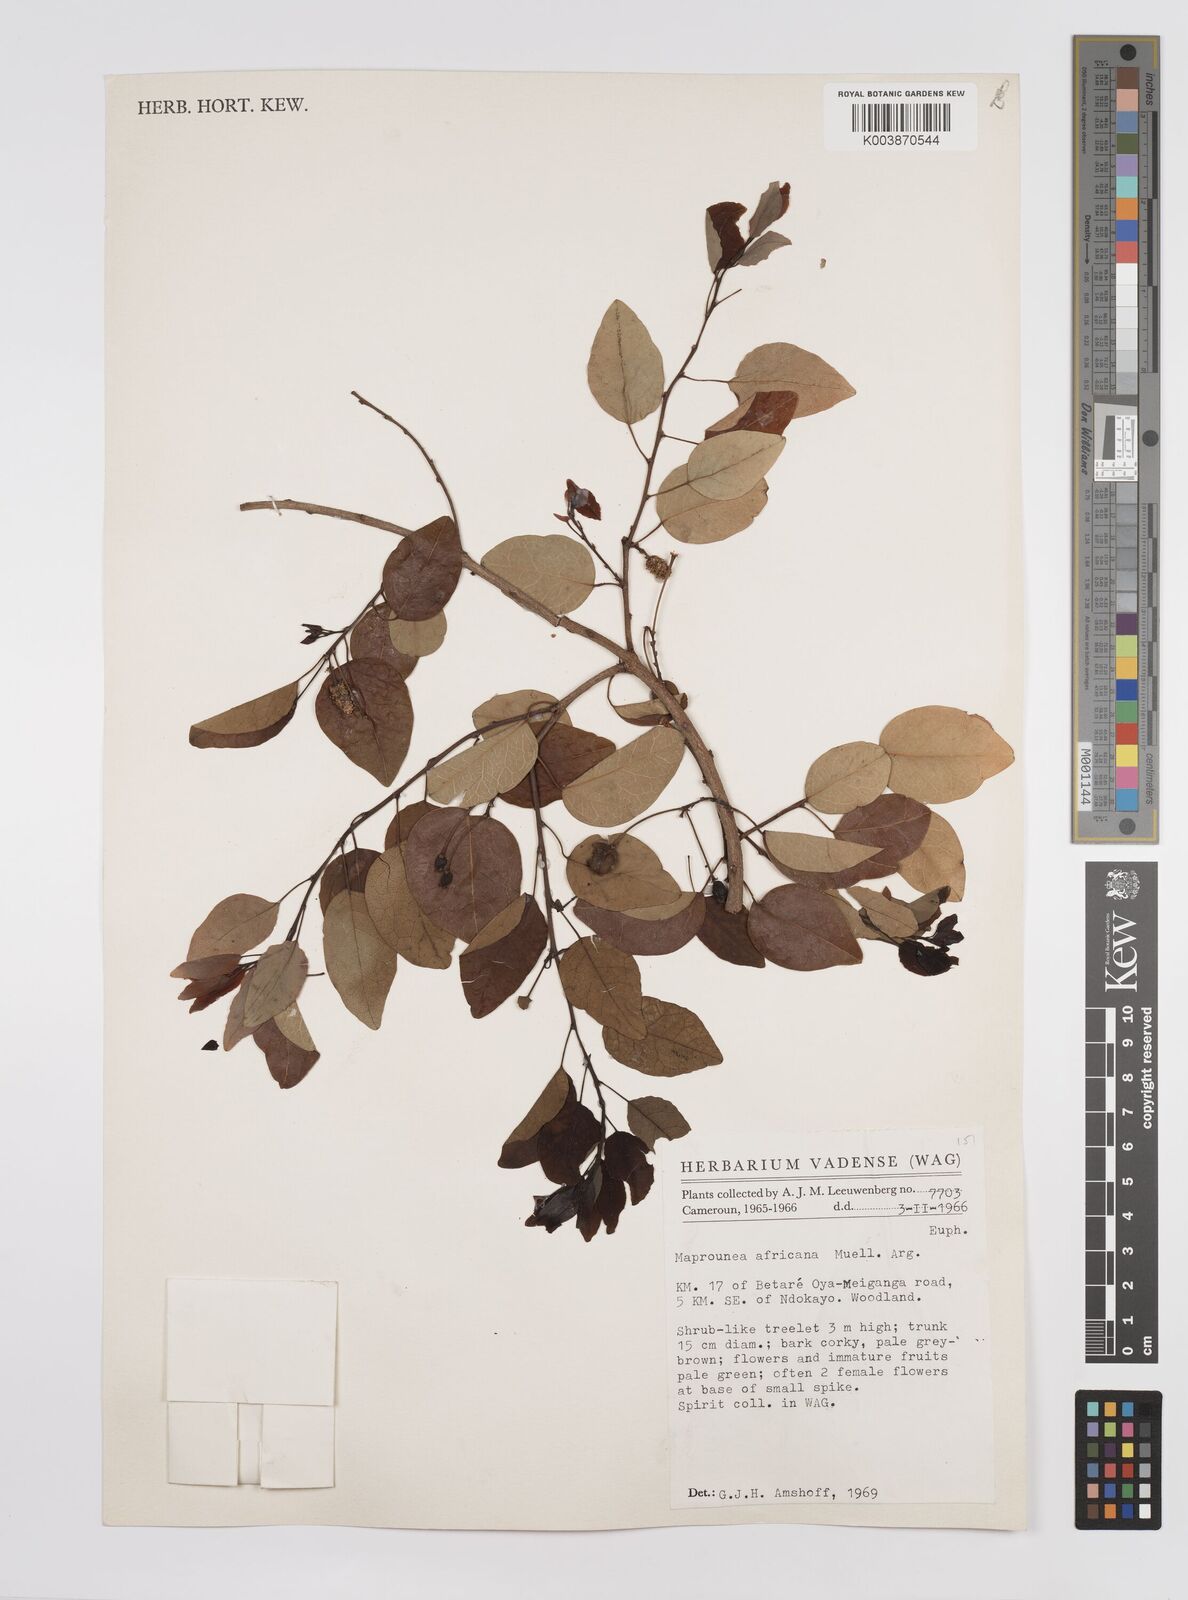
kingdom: Plantae
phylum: Tracheophyta
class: Magnoliopsida
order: Malpighiales
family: Euphorbiaceae
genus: Maprounea
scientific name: Maprounea africana
